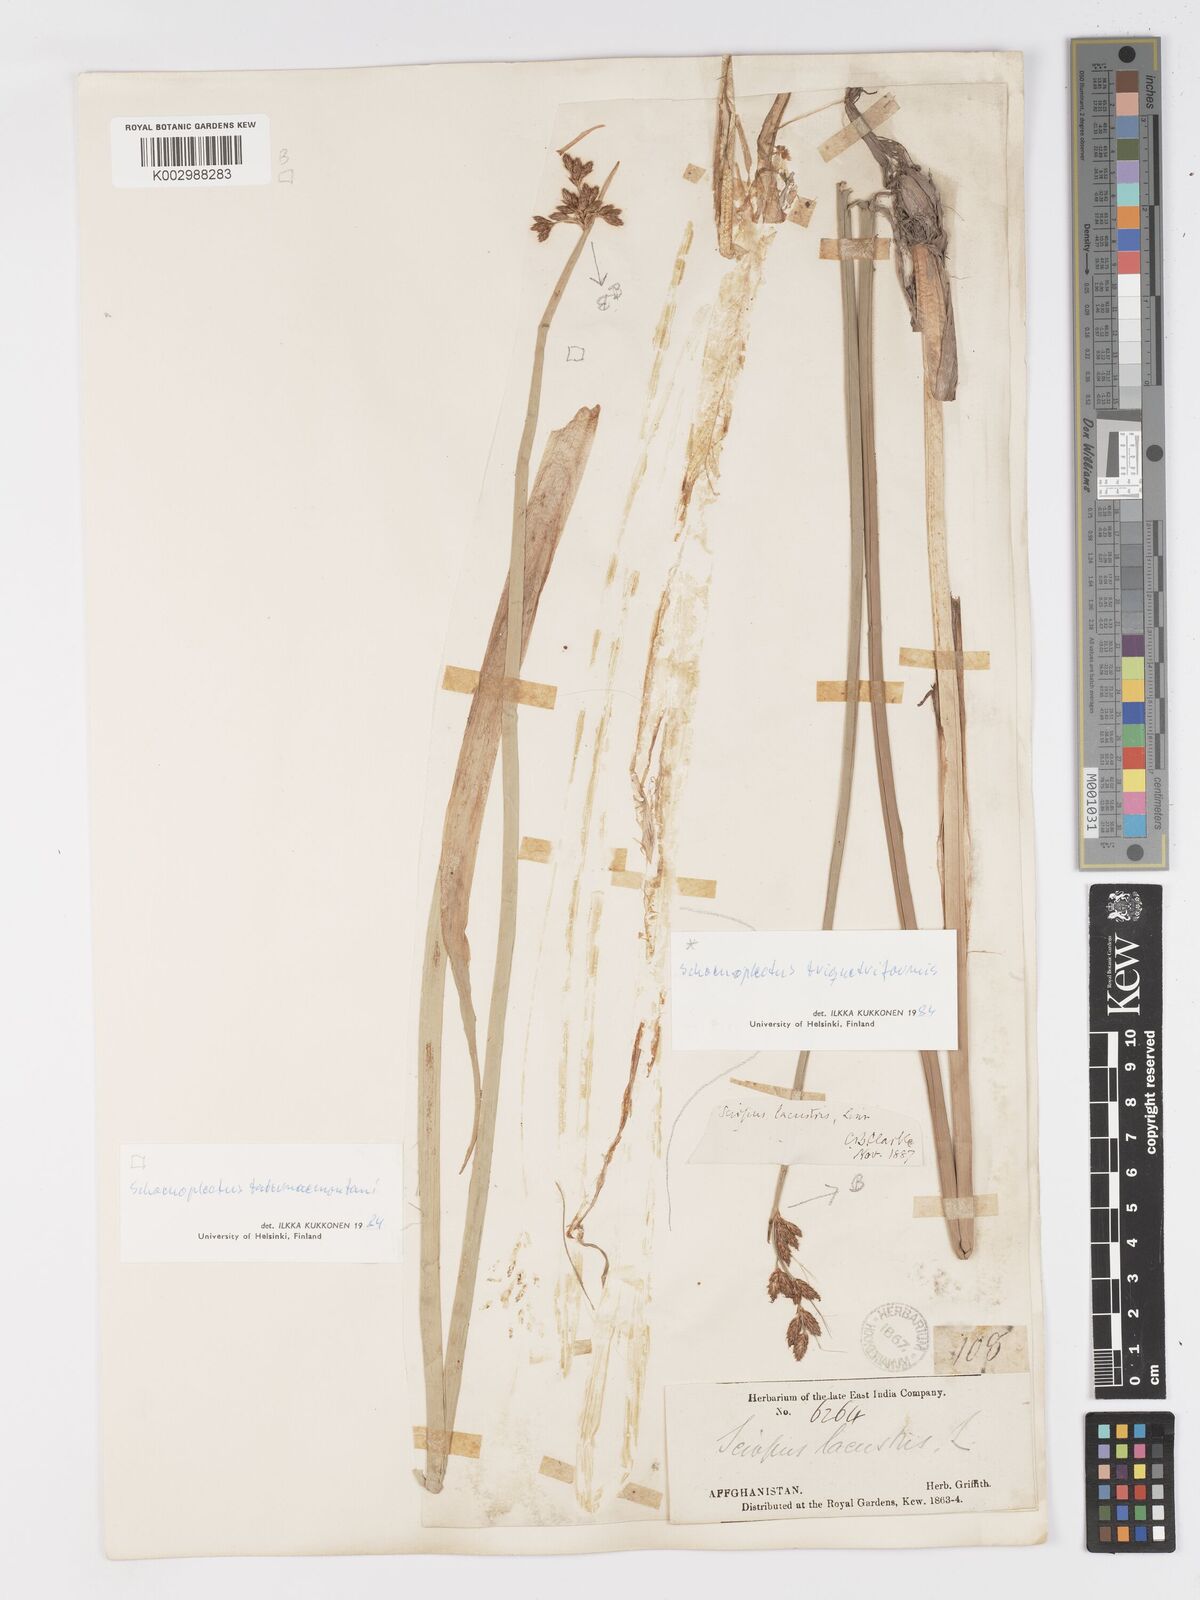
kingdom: Plantae
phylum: Tracheophyta
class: Liliopsida
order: Poales
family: Cyperaceae
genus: Schoenoplectus
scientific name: Schoenoplectus
